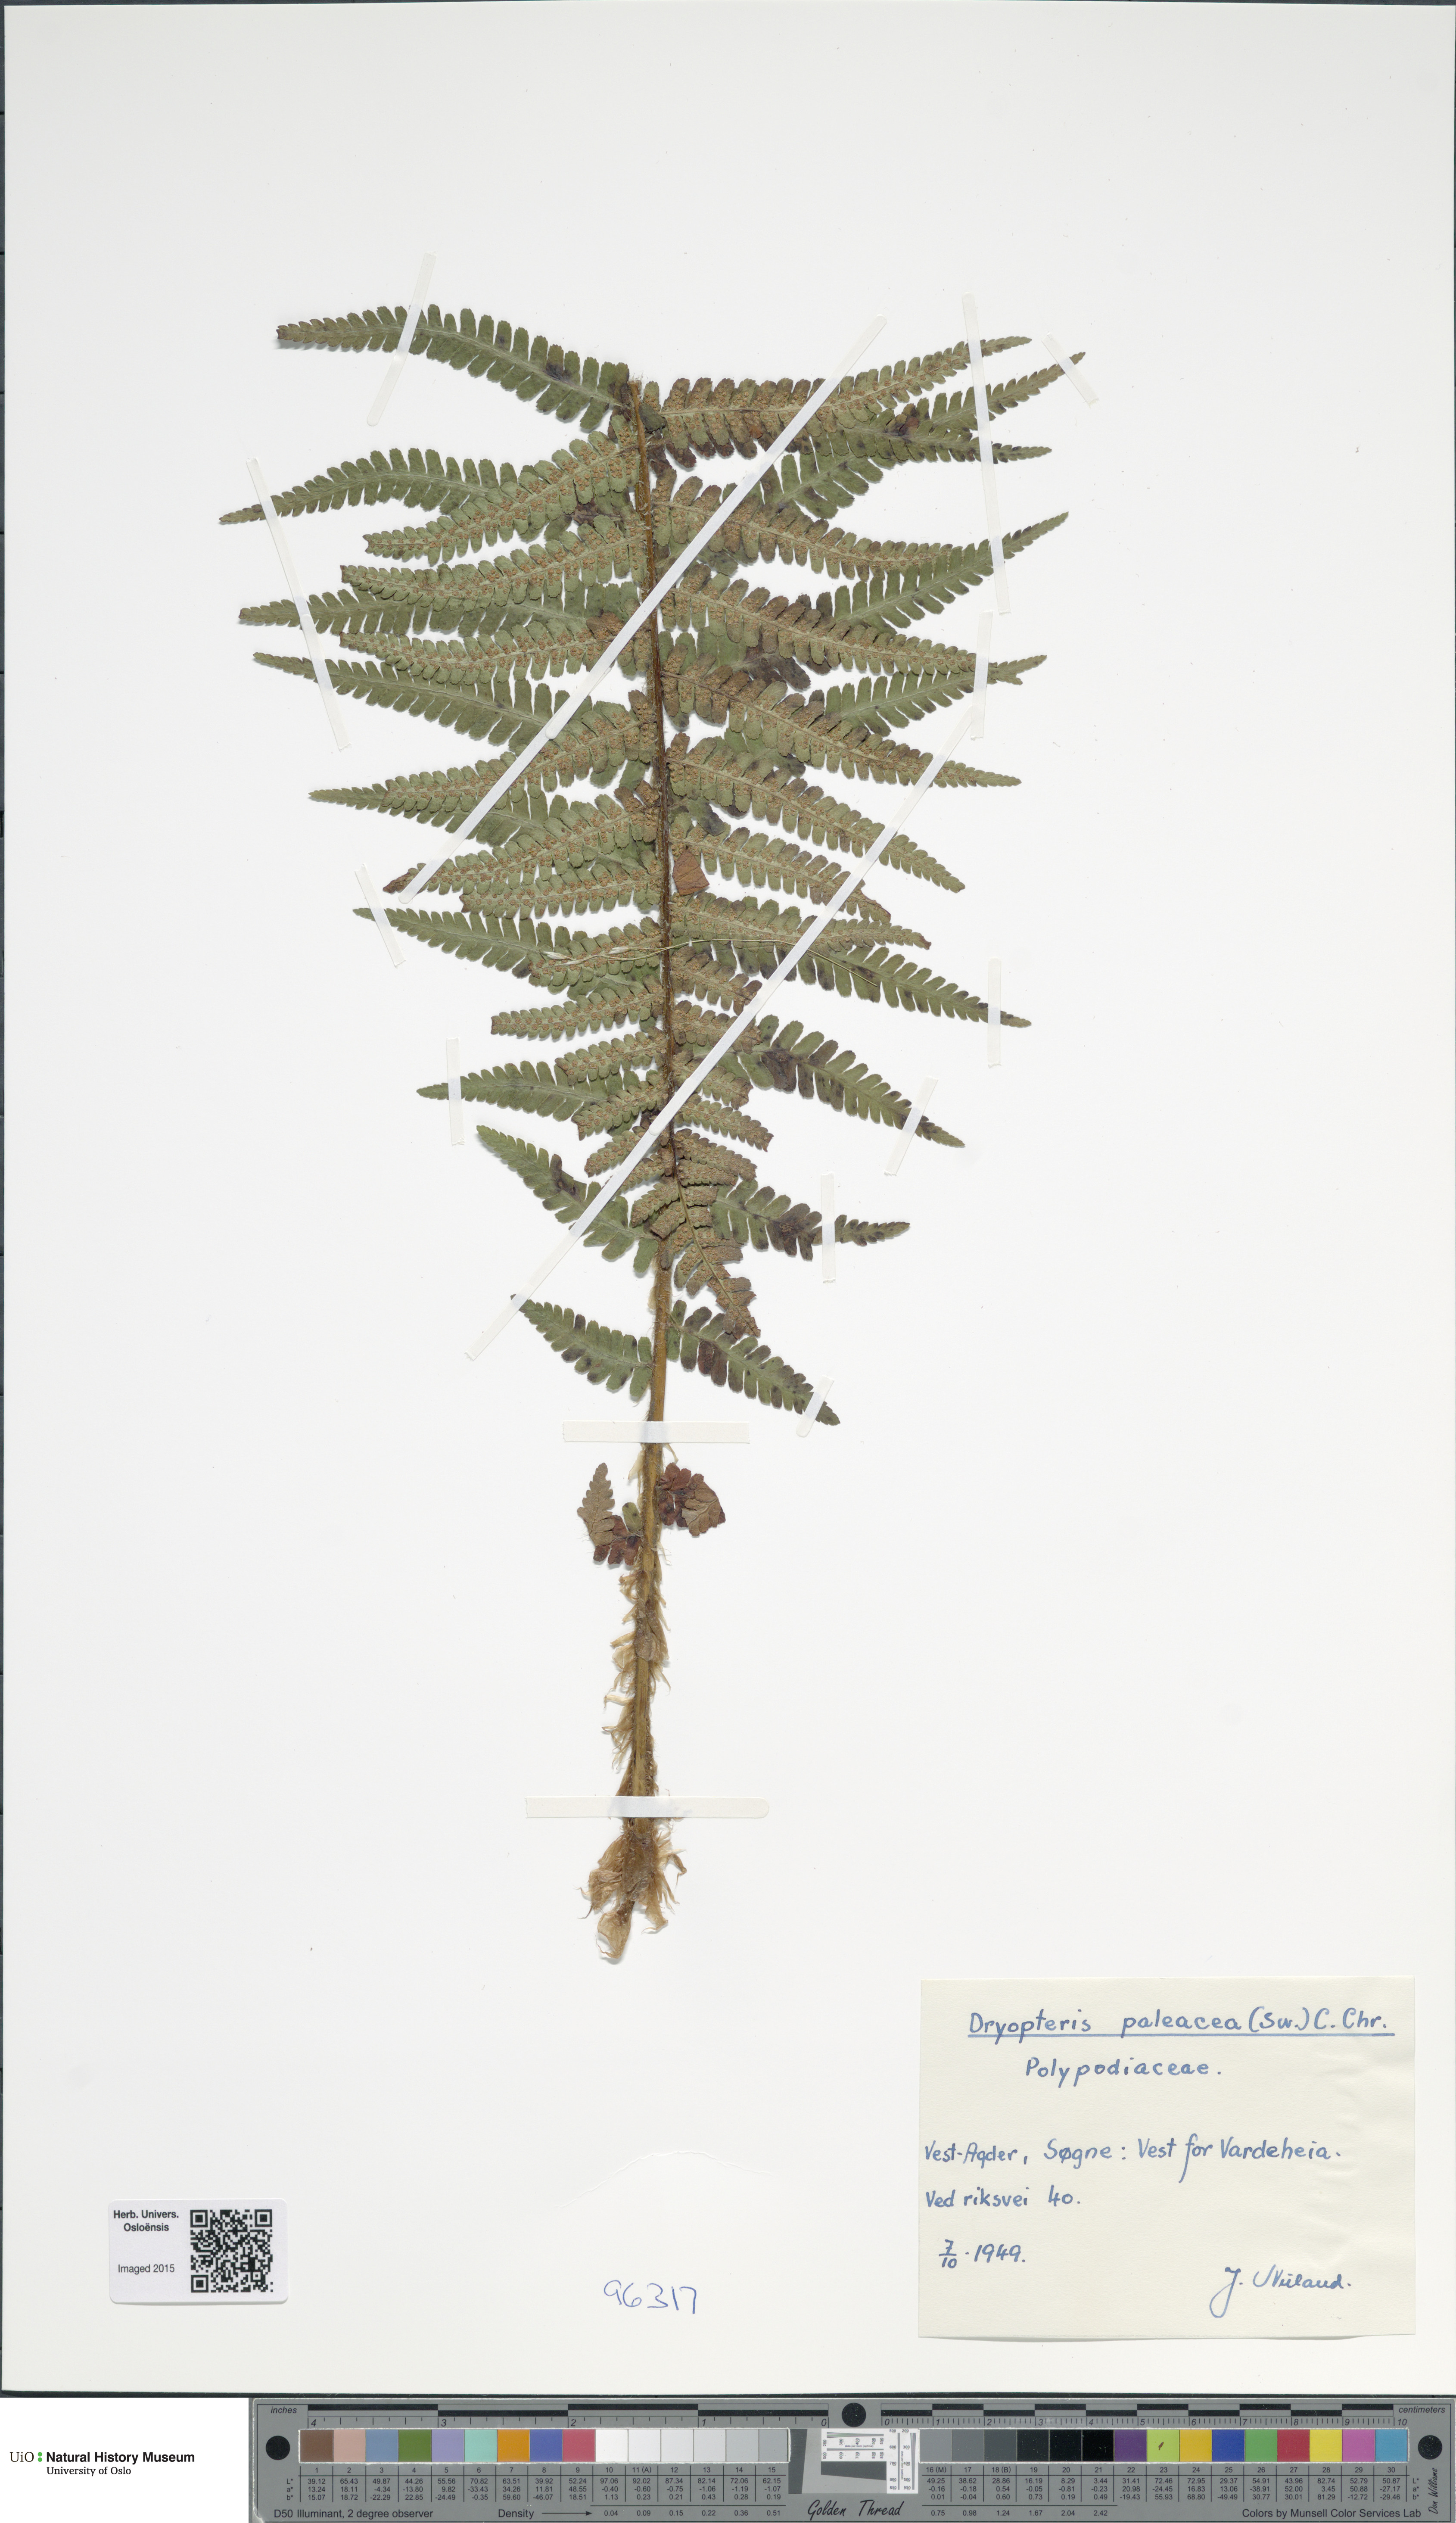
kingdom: Plantae
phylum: Tracheophyta
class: Polypodiopsida
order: Polypodiales
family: Dryopteridaceae
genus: Dryopteris
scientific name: Dryopteris wallichiana
